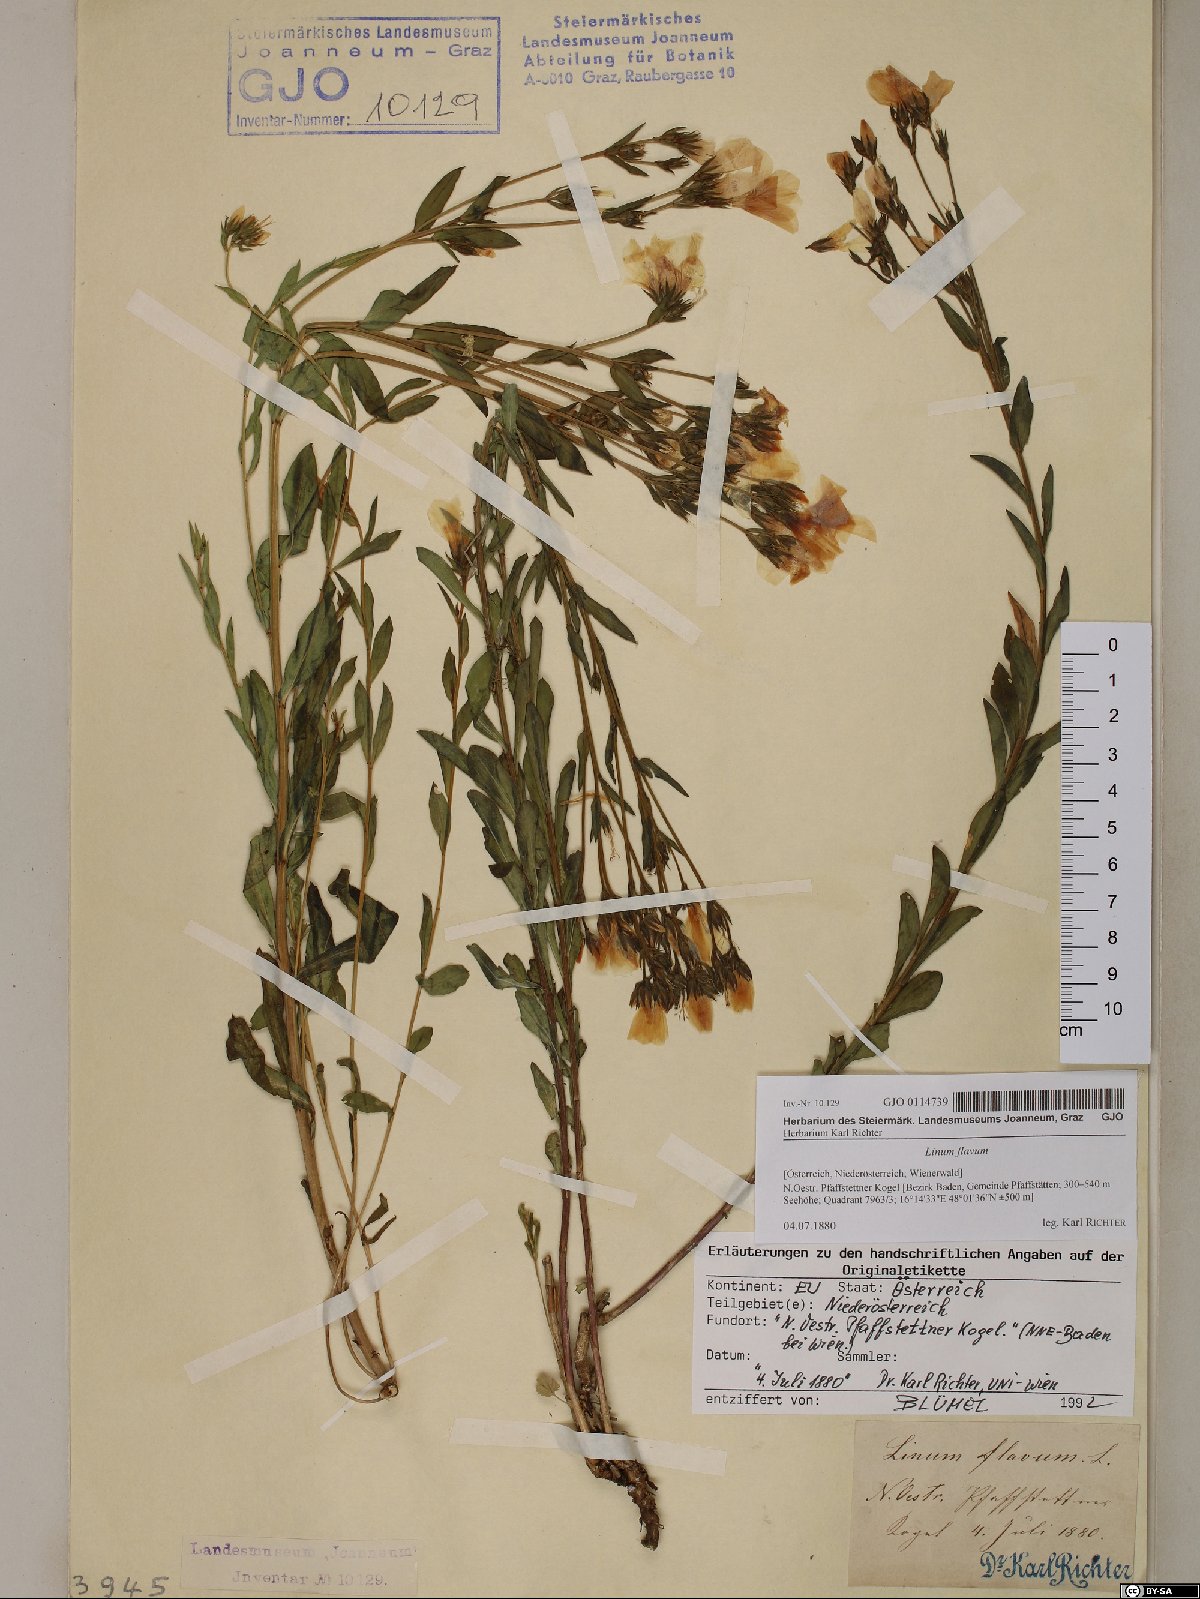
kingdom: Plantae
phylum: Tracheophyta
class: Magnoliopsida
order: Malpighiales
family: Linaceae
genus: Linum
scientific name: Linum flavum
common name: Yellow flax
